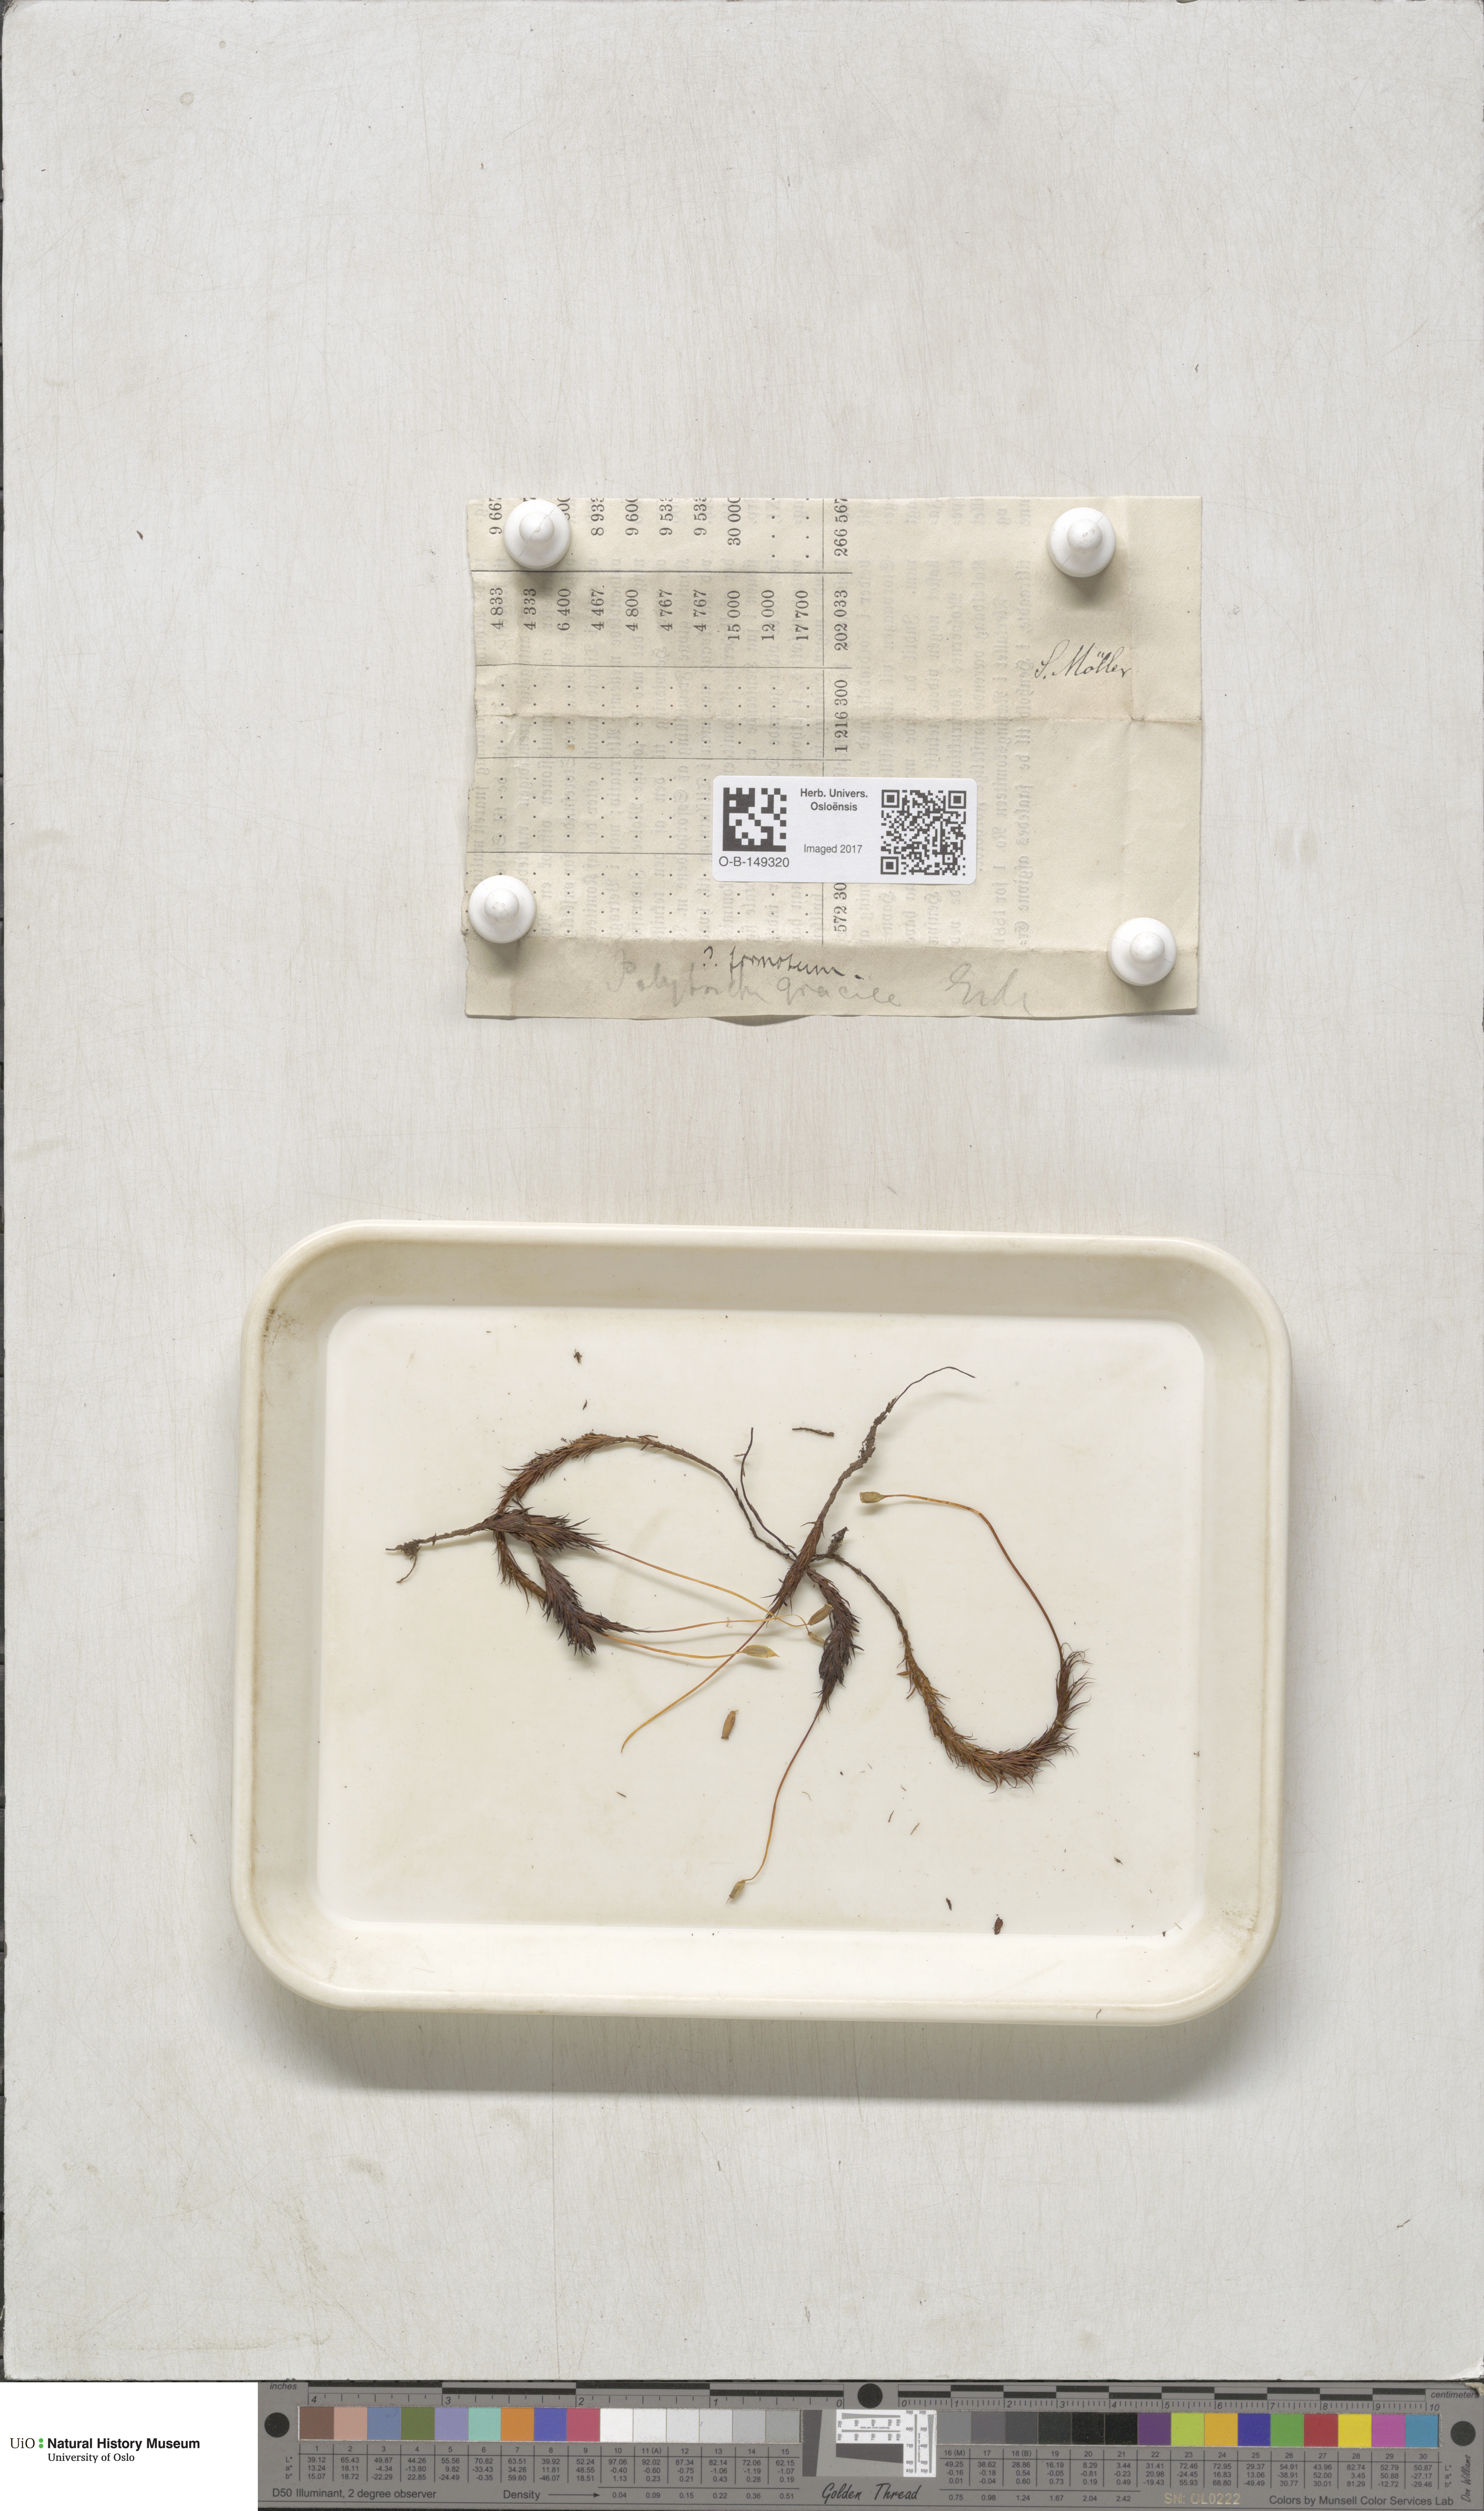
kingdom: Plantae
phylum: Bryophyta
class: Polytrichopsida
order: Polytrichales
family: Polytrichaceae
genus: Polytrichum
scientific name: Polytrichum formosum
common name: Bank haircap moss
